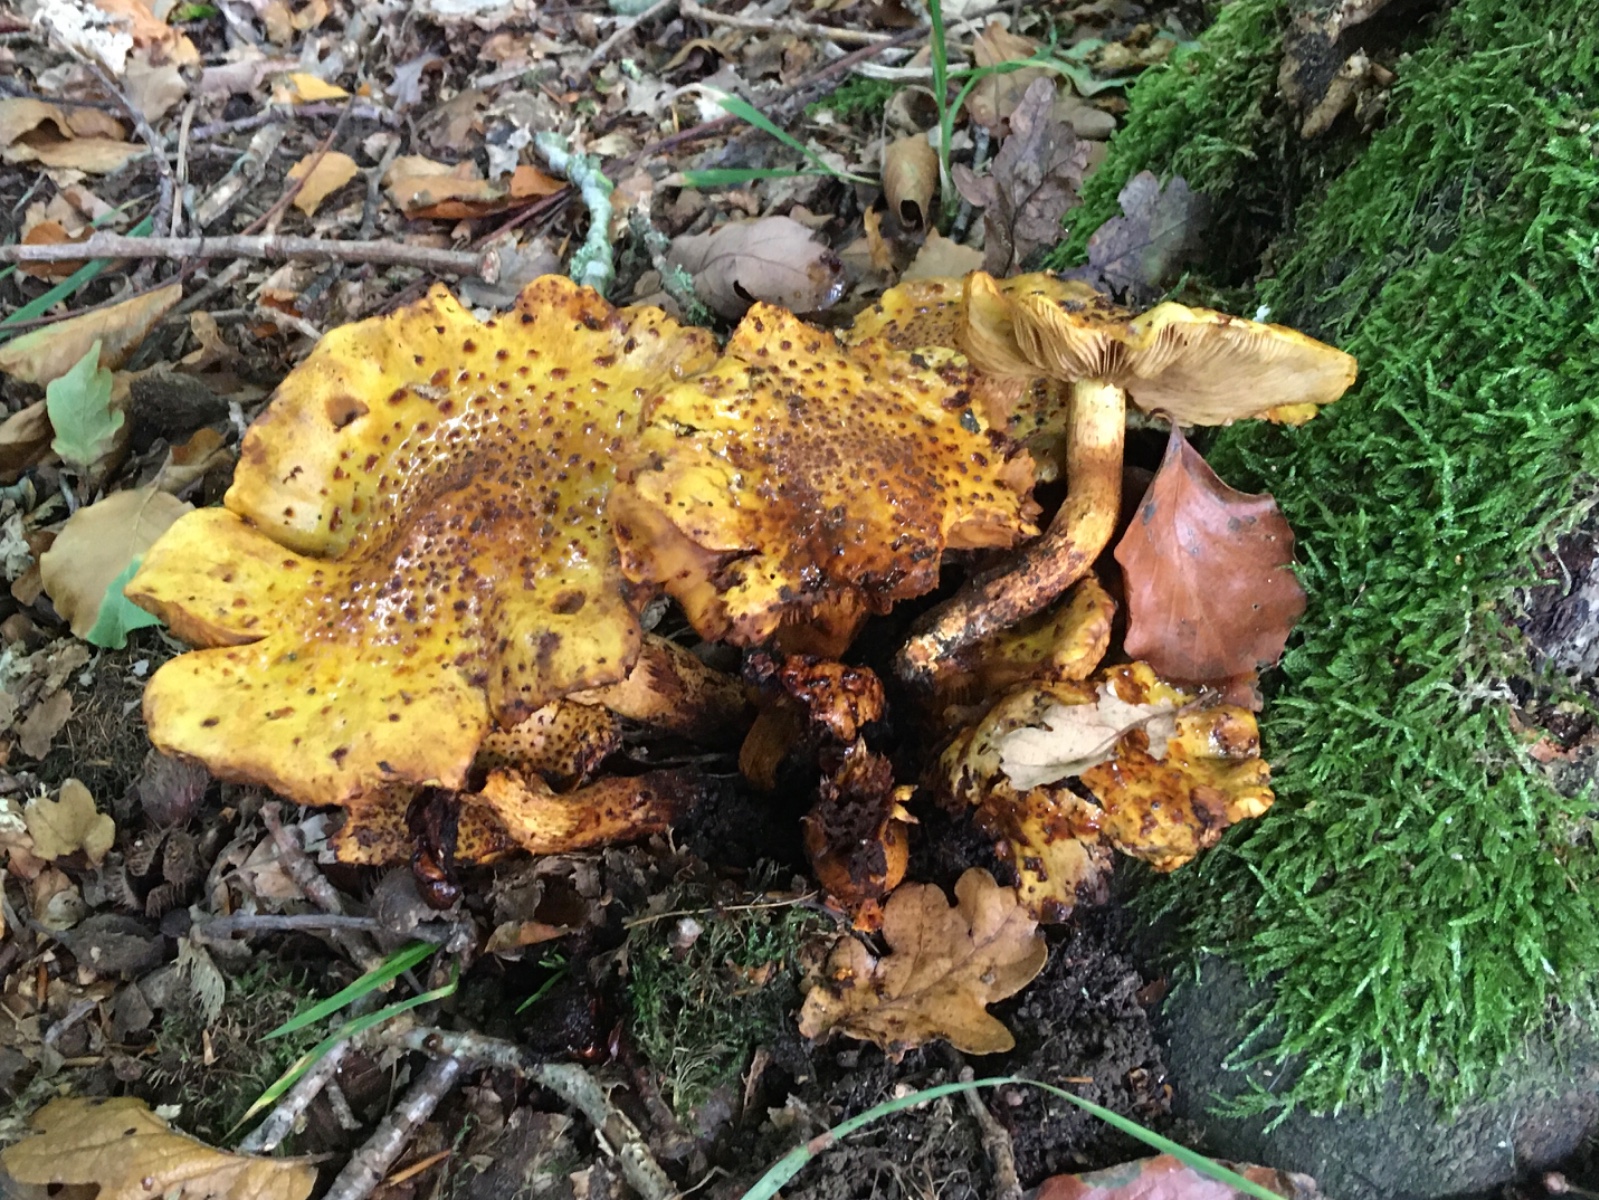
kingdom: Fungi
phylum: Basidiomycota
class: Agaricomycetes
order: Agaricales
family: Strophariaceae
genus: Pholiota
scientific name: Pholiota jahnii
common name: slimet skælhat
